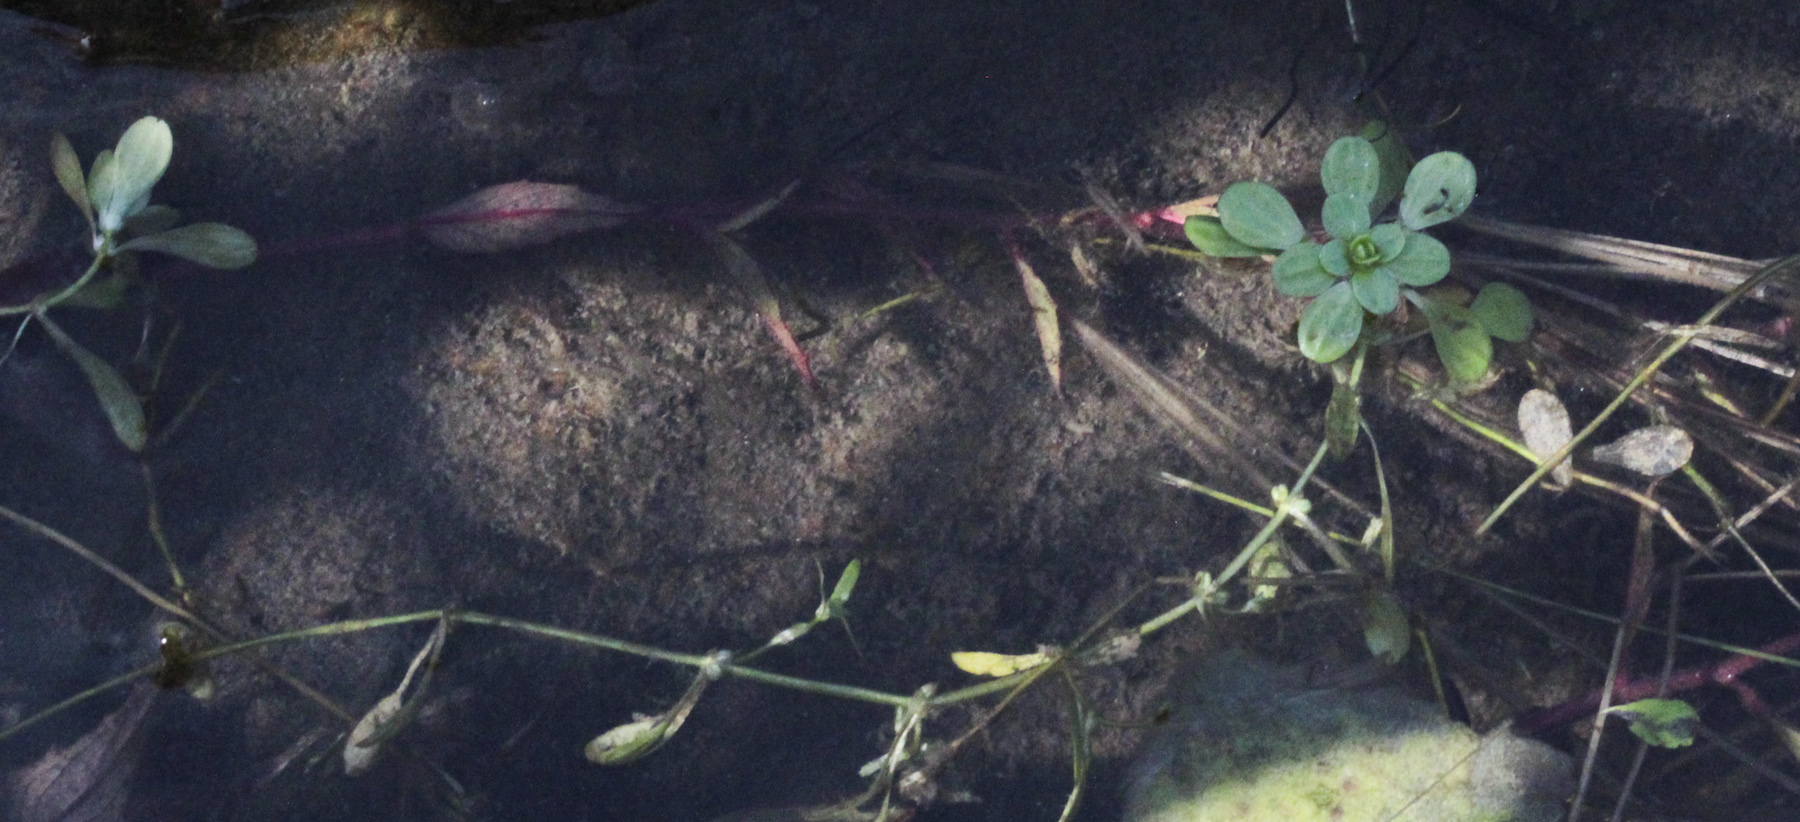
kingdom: Plantae
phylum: Tracheophyta
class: Magnoliopsida
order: Lamiales
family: Plantaginaceae
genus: Callitriche
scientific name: Callitriche palustris
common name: Spring water-starwort
